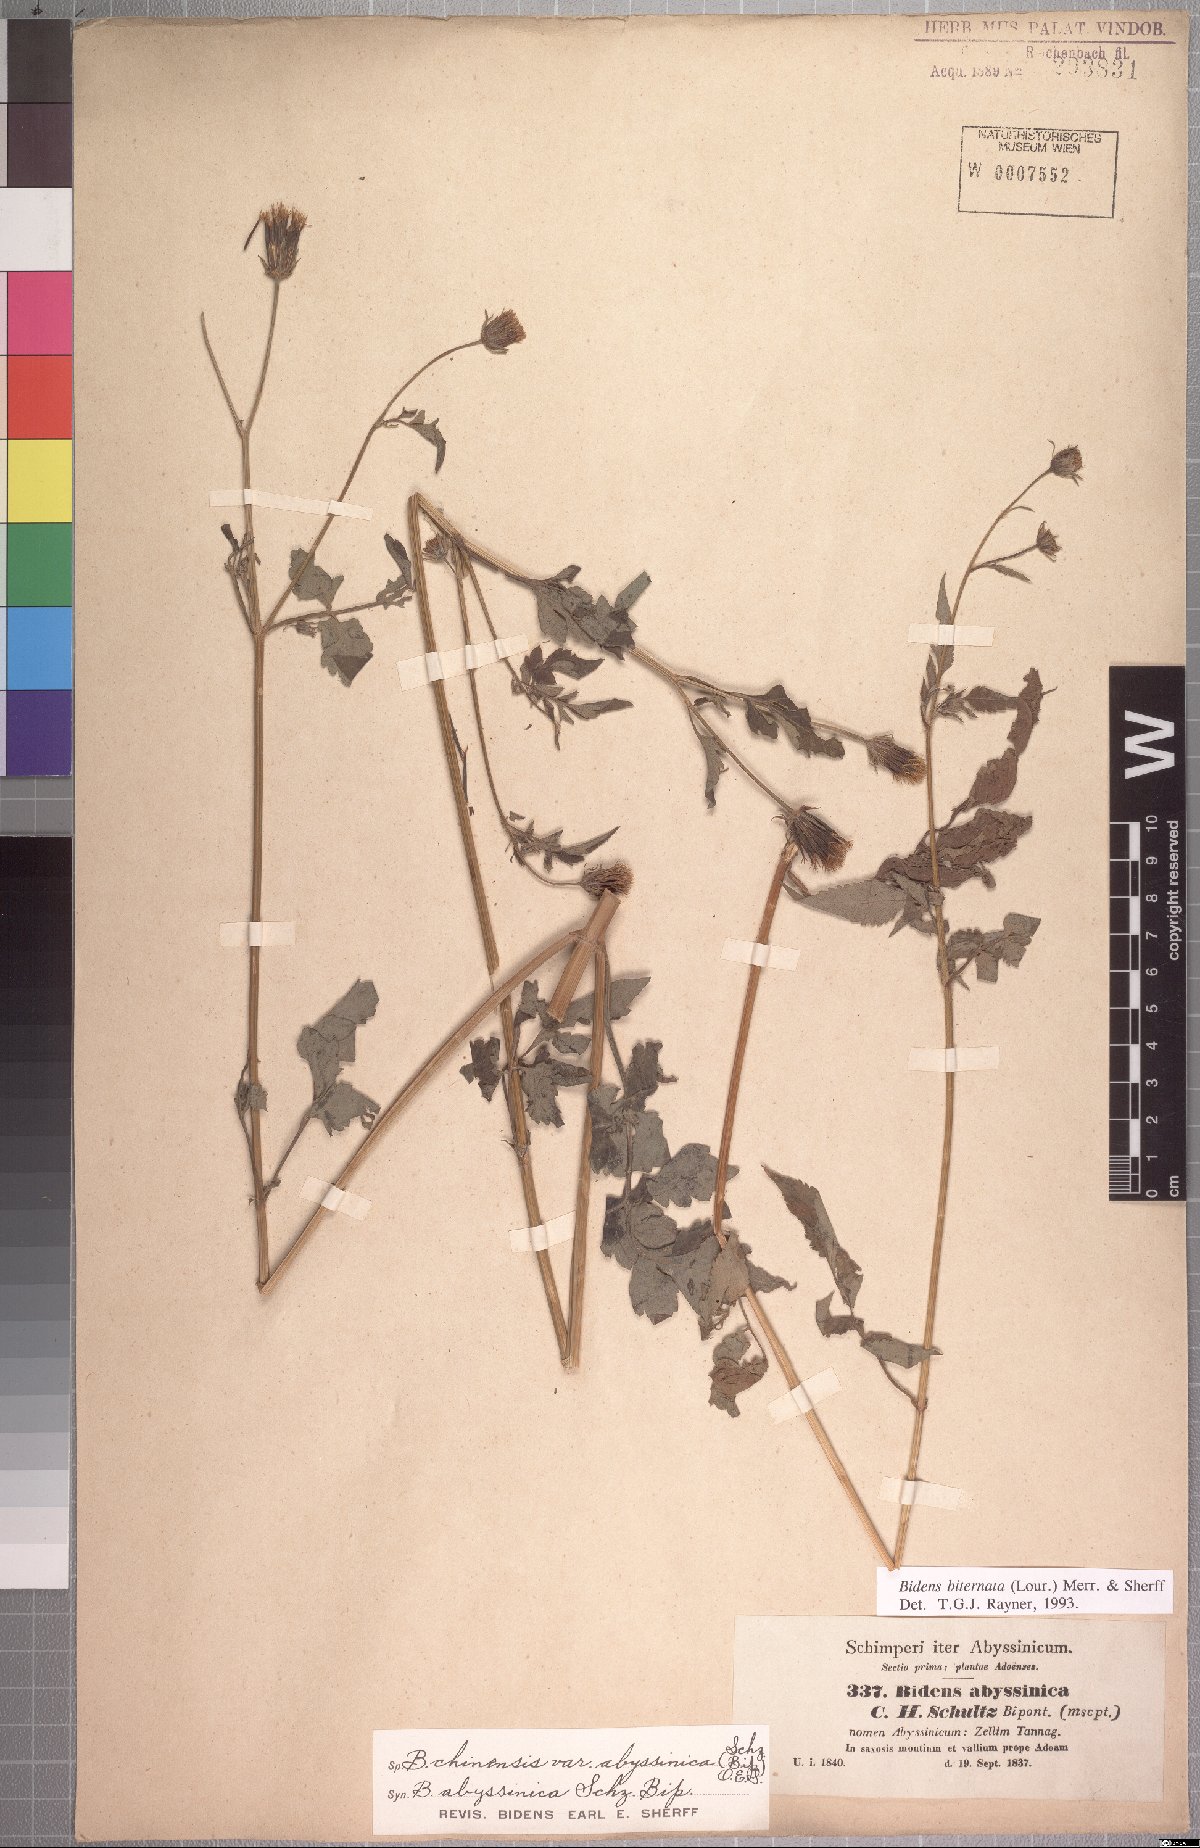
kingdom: Plantae
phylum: Tracheophyta
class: Magnoliopsida
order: Asterales
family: Asteraceae
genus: Bidens
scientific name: Bidens biternata
